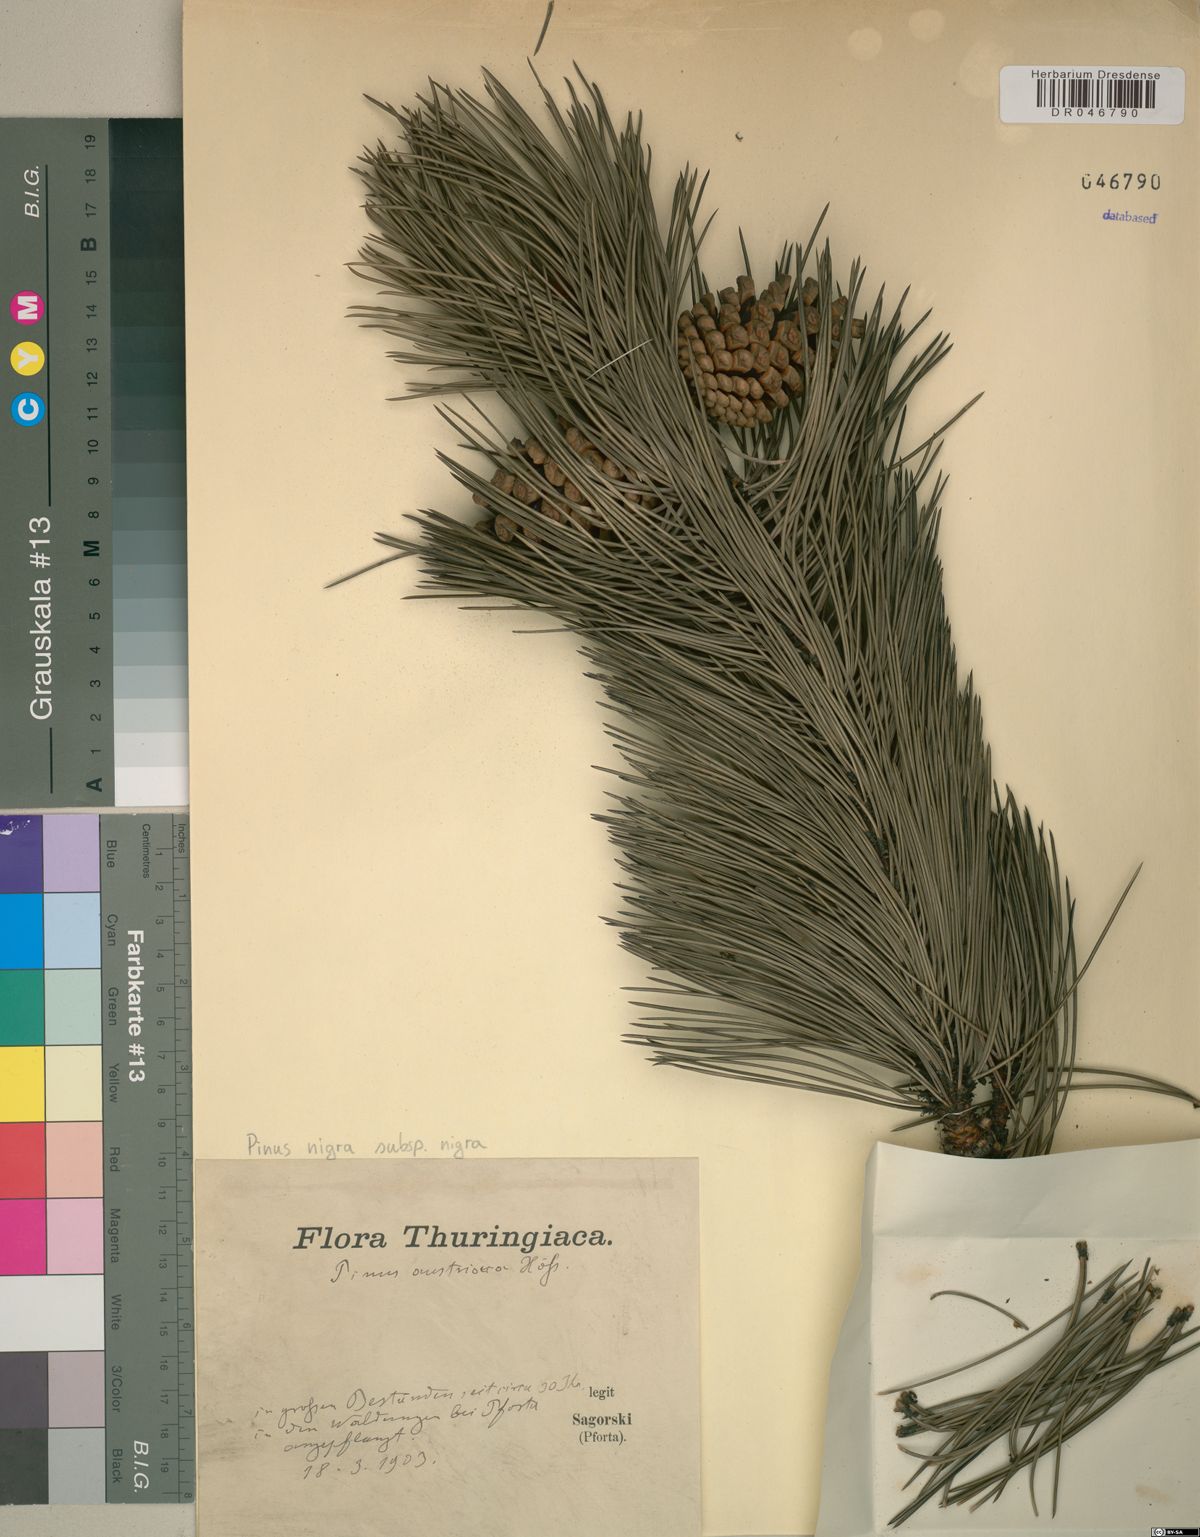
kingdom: Plantae
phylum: Tracheophyta
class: Pinopsida
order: Pinales
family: Pinaceae
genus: Pinus
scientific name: Pinus nigra
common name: Austrian pine
